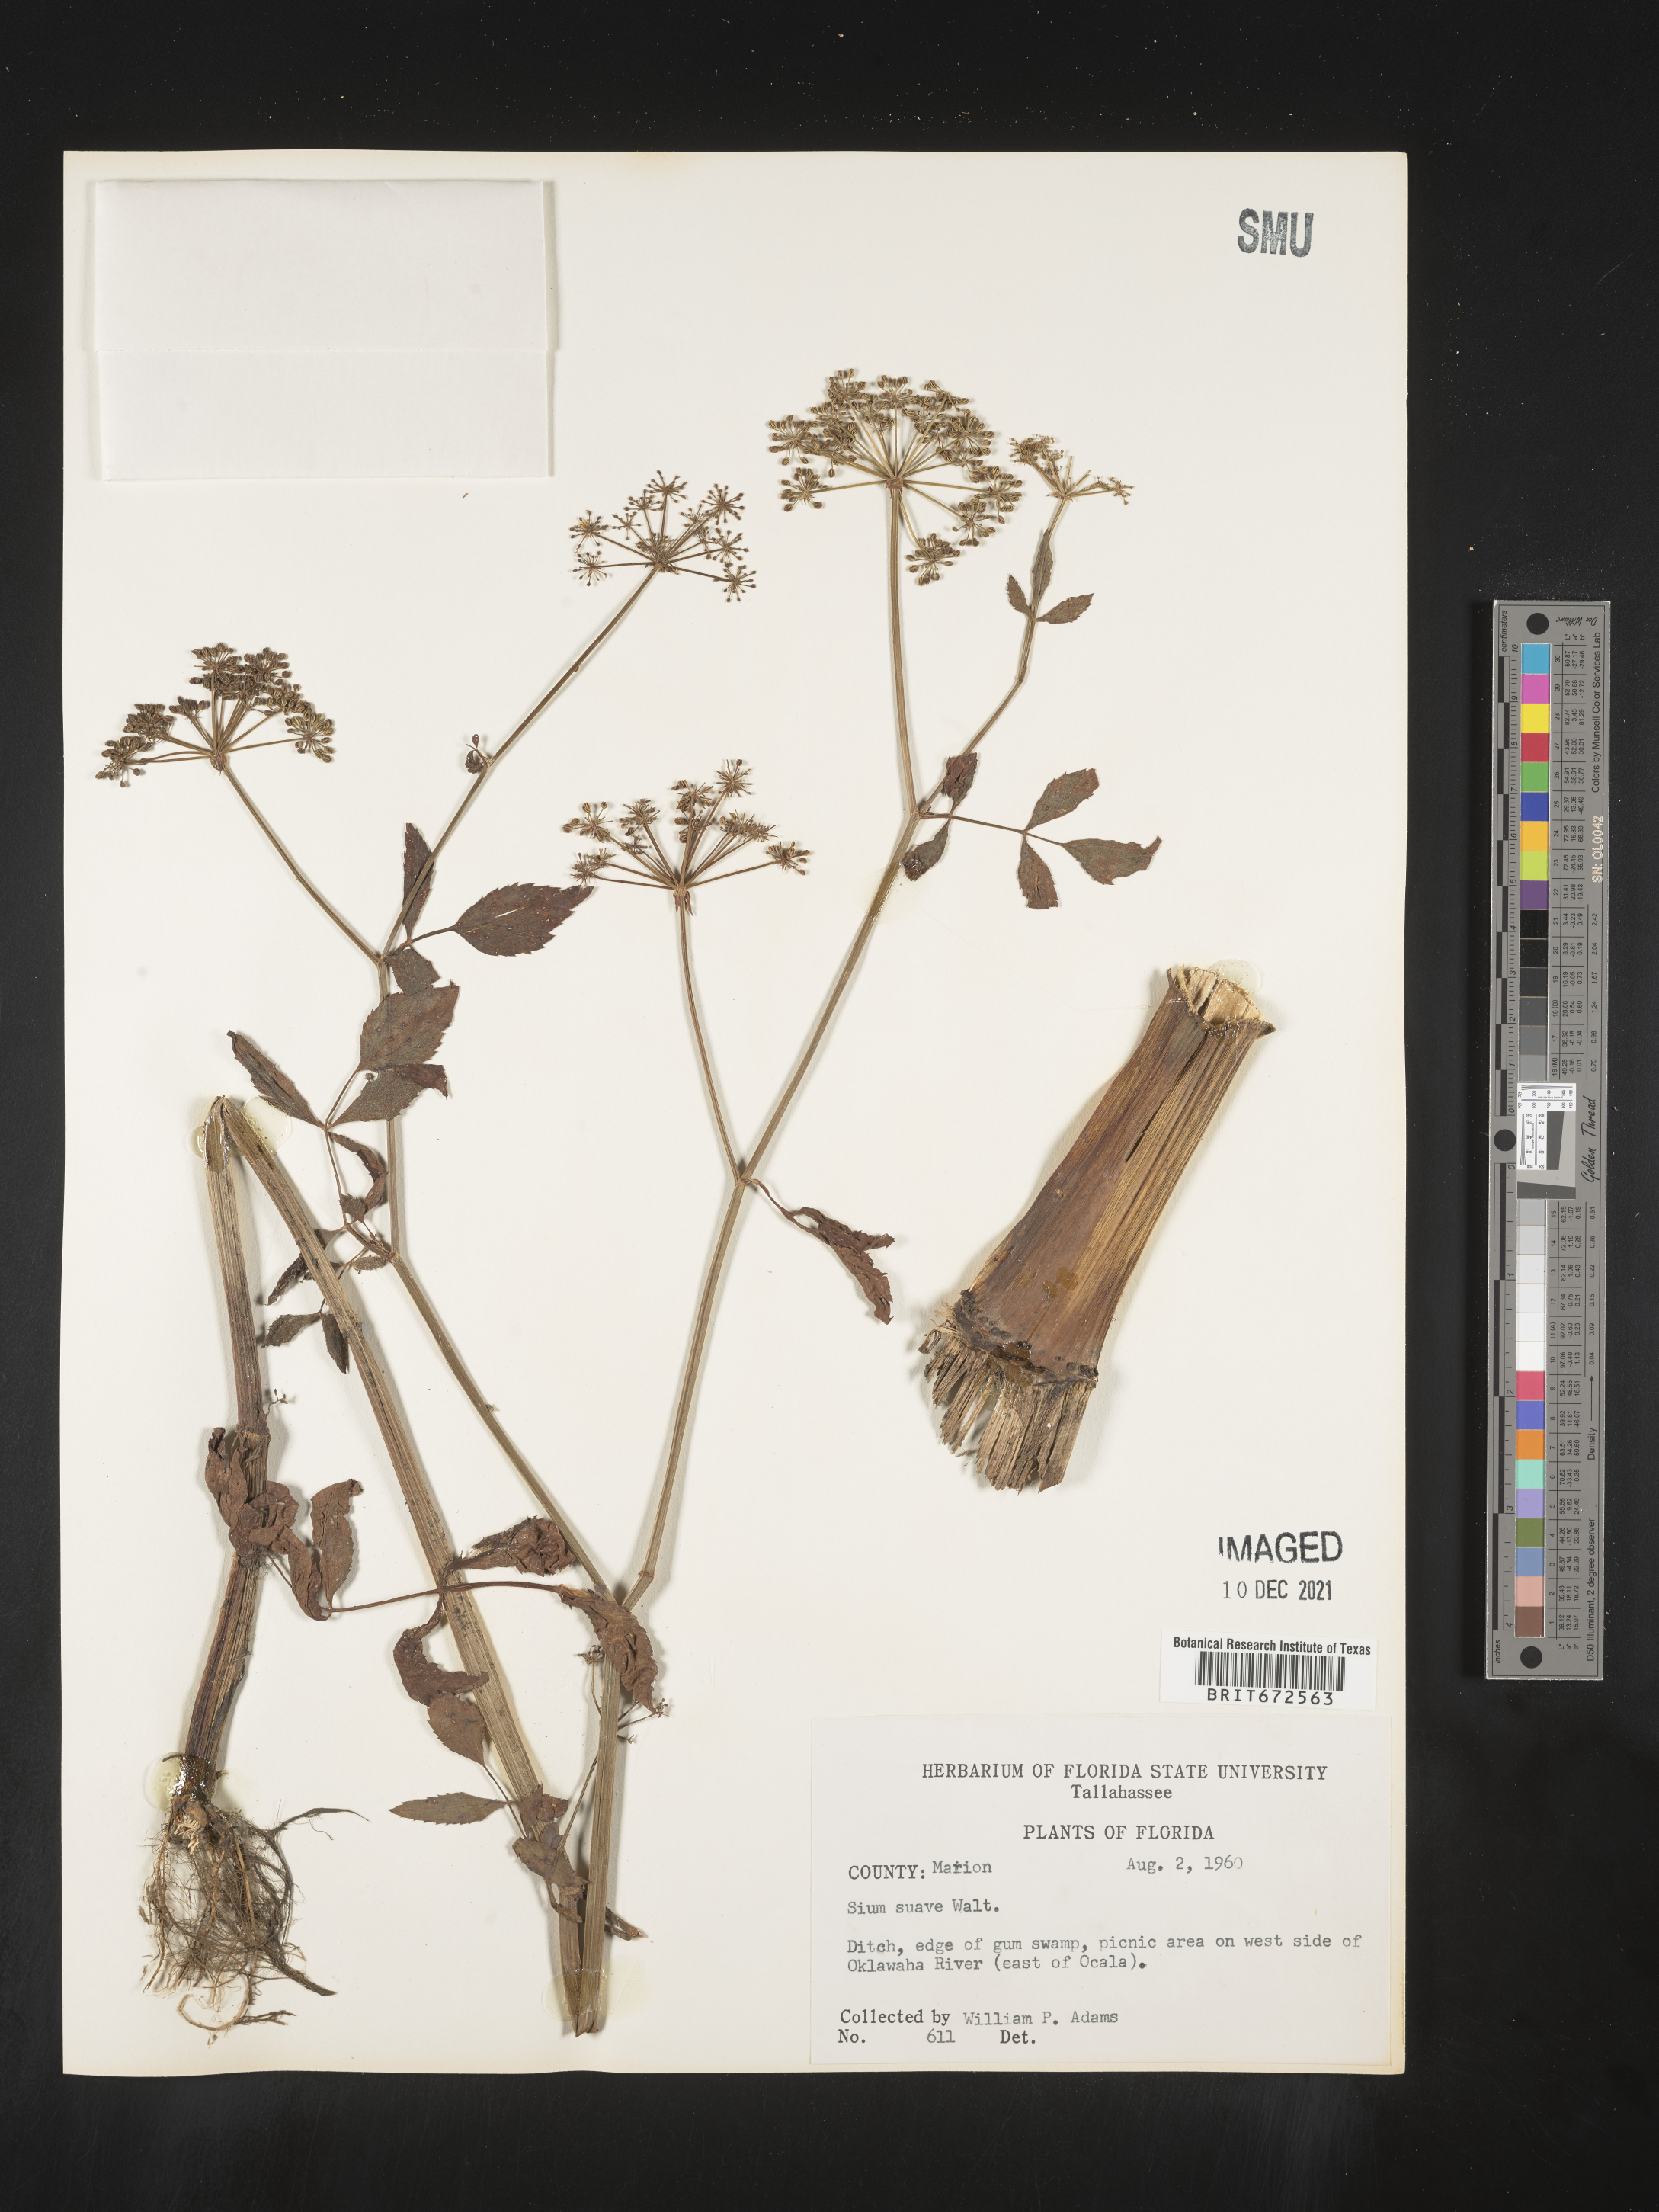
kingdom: Plantae
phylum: Tracheophyta
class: Magnoliopsida
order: Apiales
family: Apiaceae
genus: Sium
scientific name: Sium suave
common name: Hemlock water-parsnip
